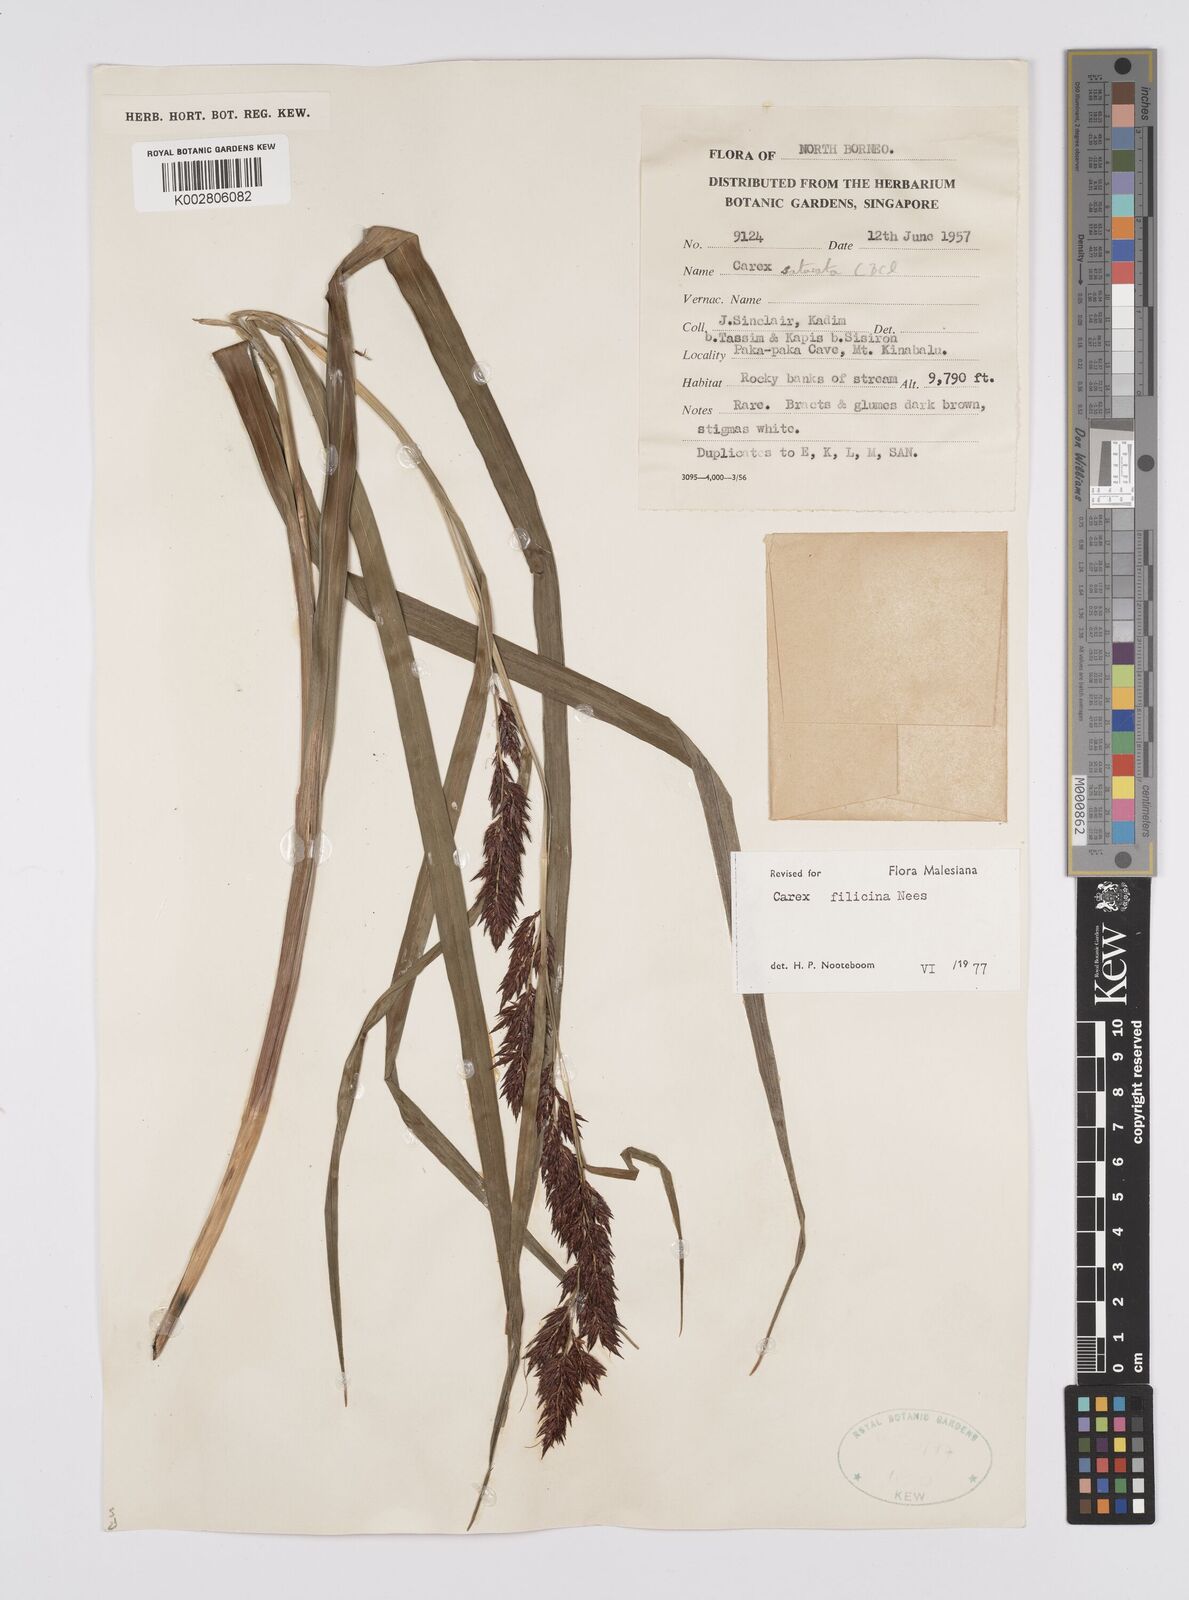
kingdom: Plantae
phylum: Tracheophyta
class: Liliopsida
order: Poales
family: Cyperaceae
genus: Carex
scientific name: Carex filicina
